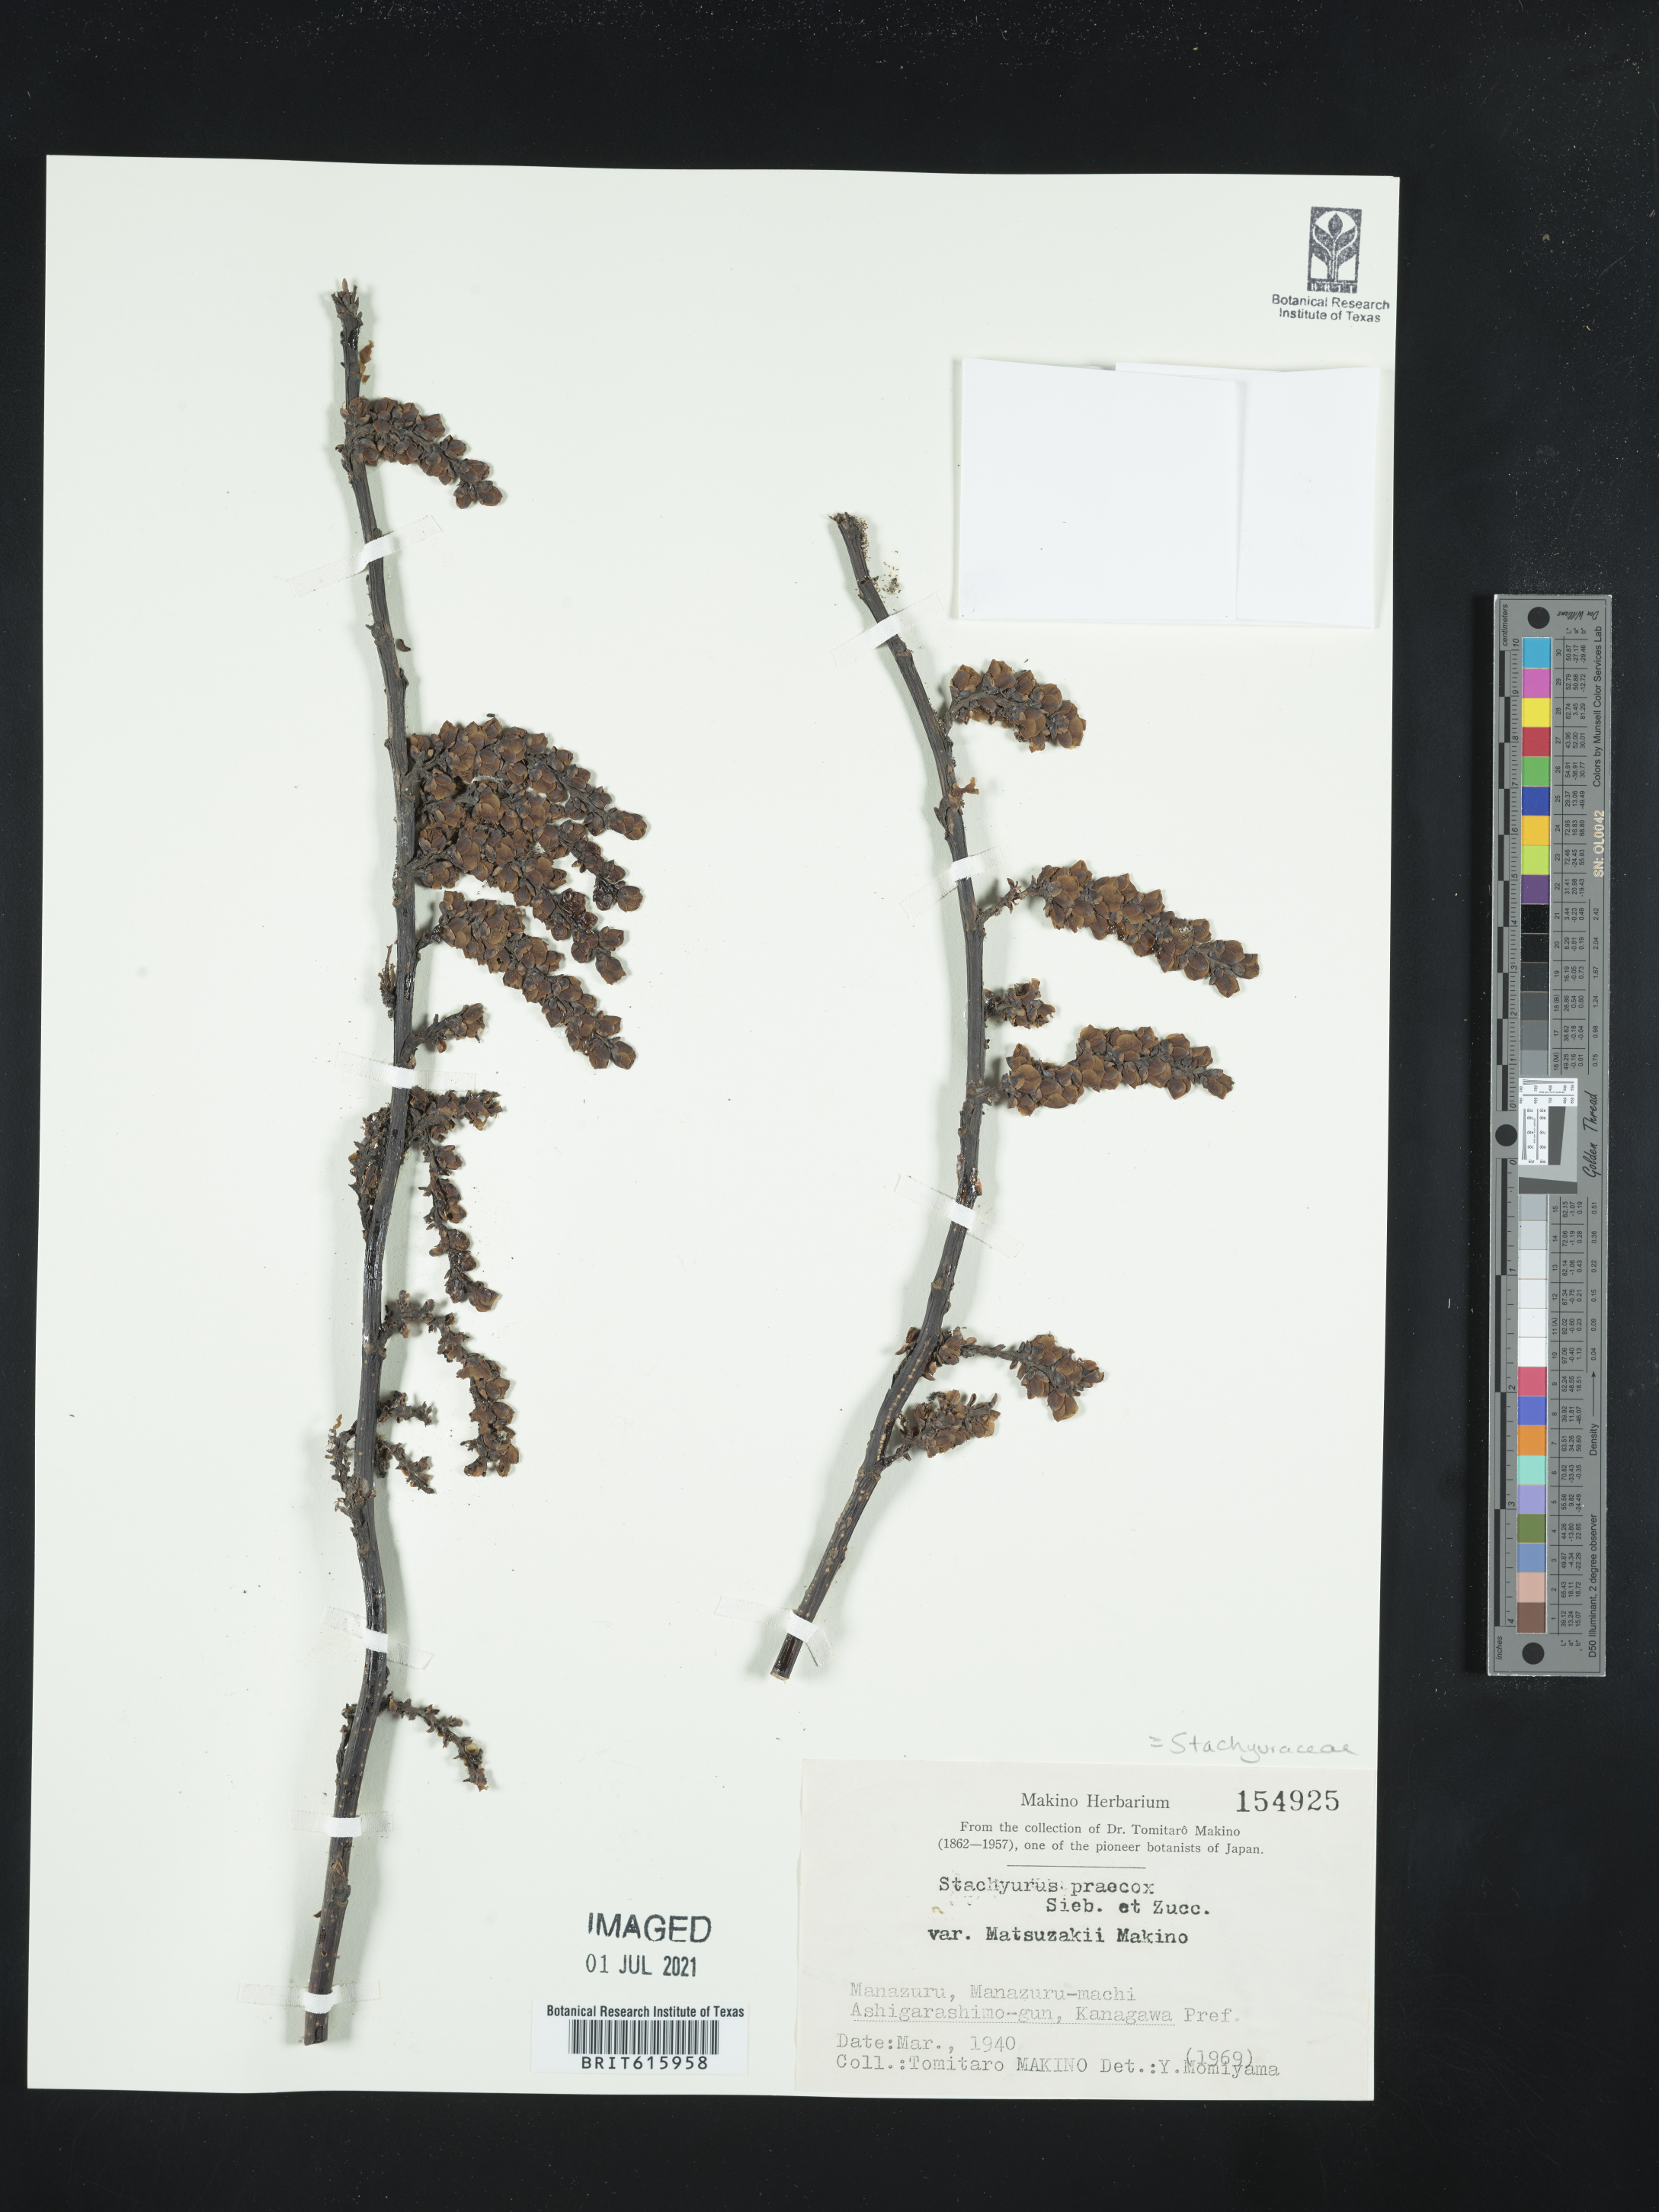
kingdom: Plantae
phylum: Tracheophyta
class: Magnoliopsida
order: Crossosomatales
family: Stachyuraceae
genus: Stachyurus
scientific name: Stachyurus praecox
